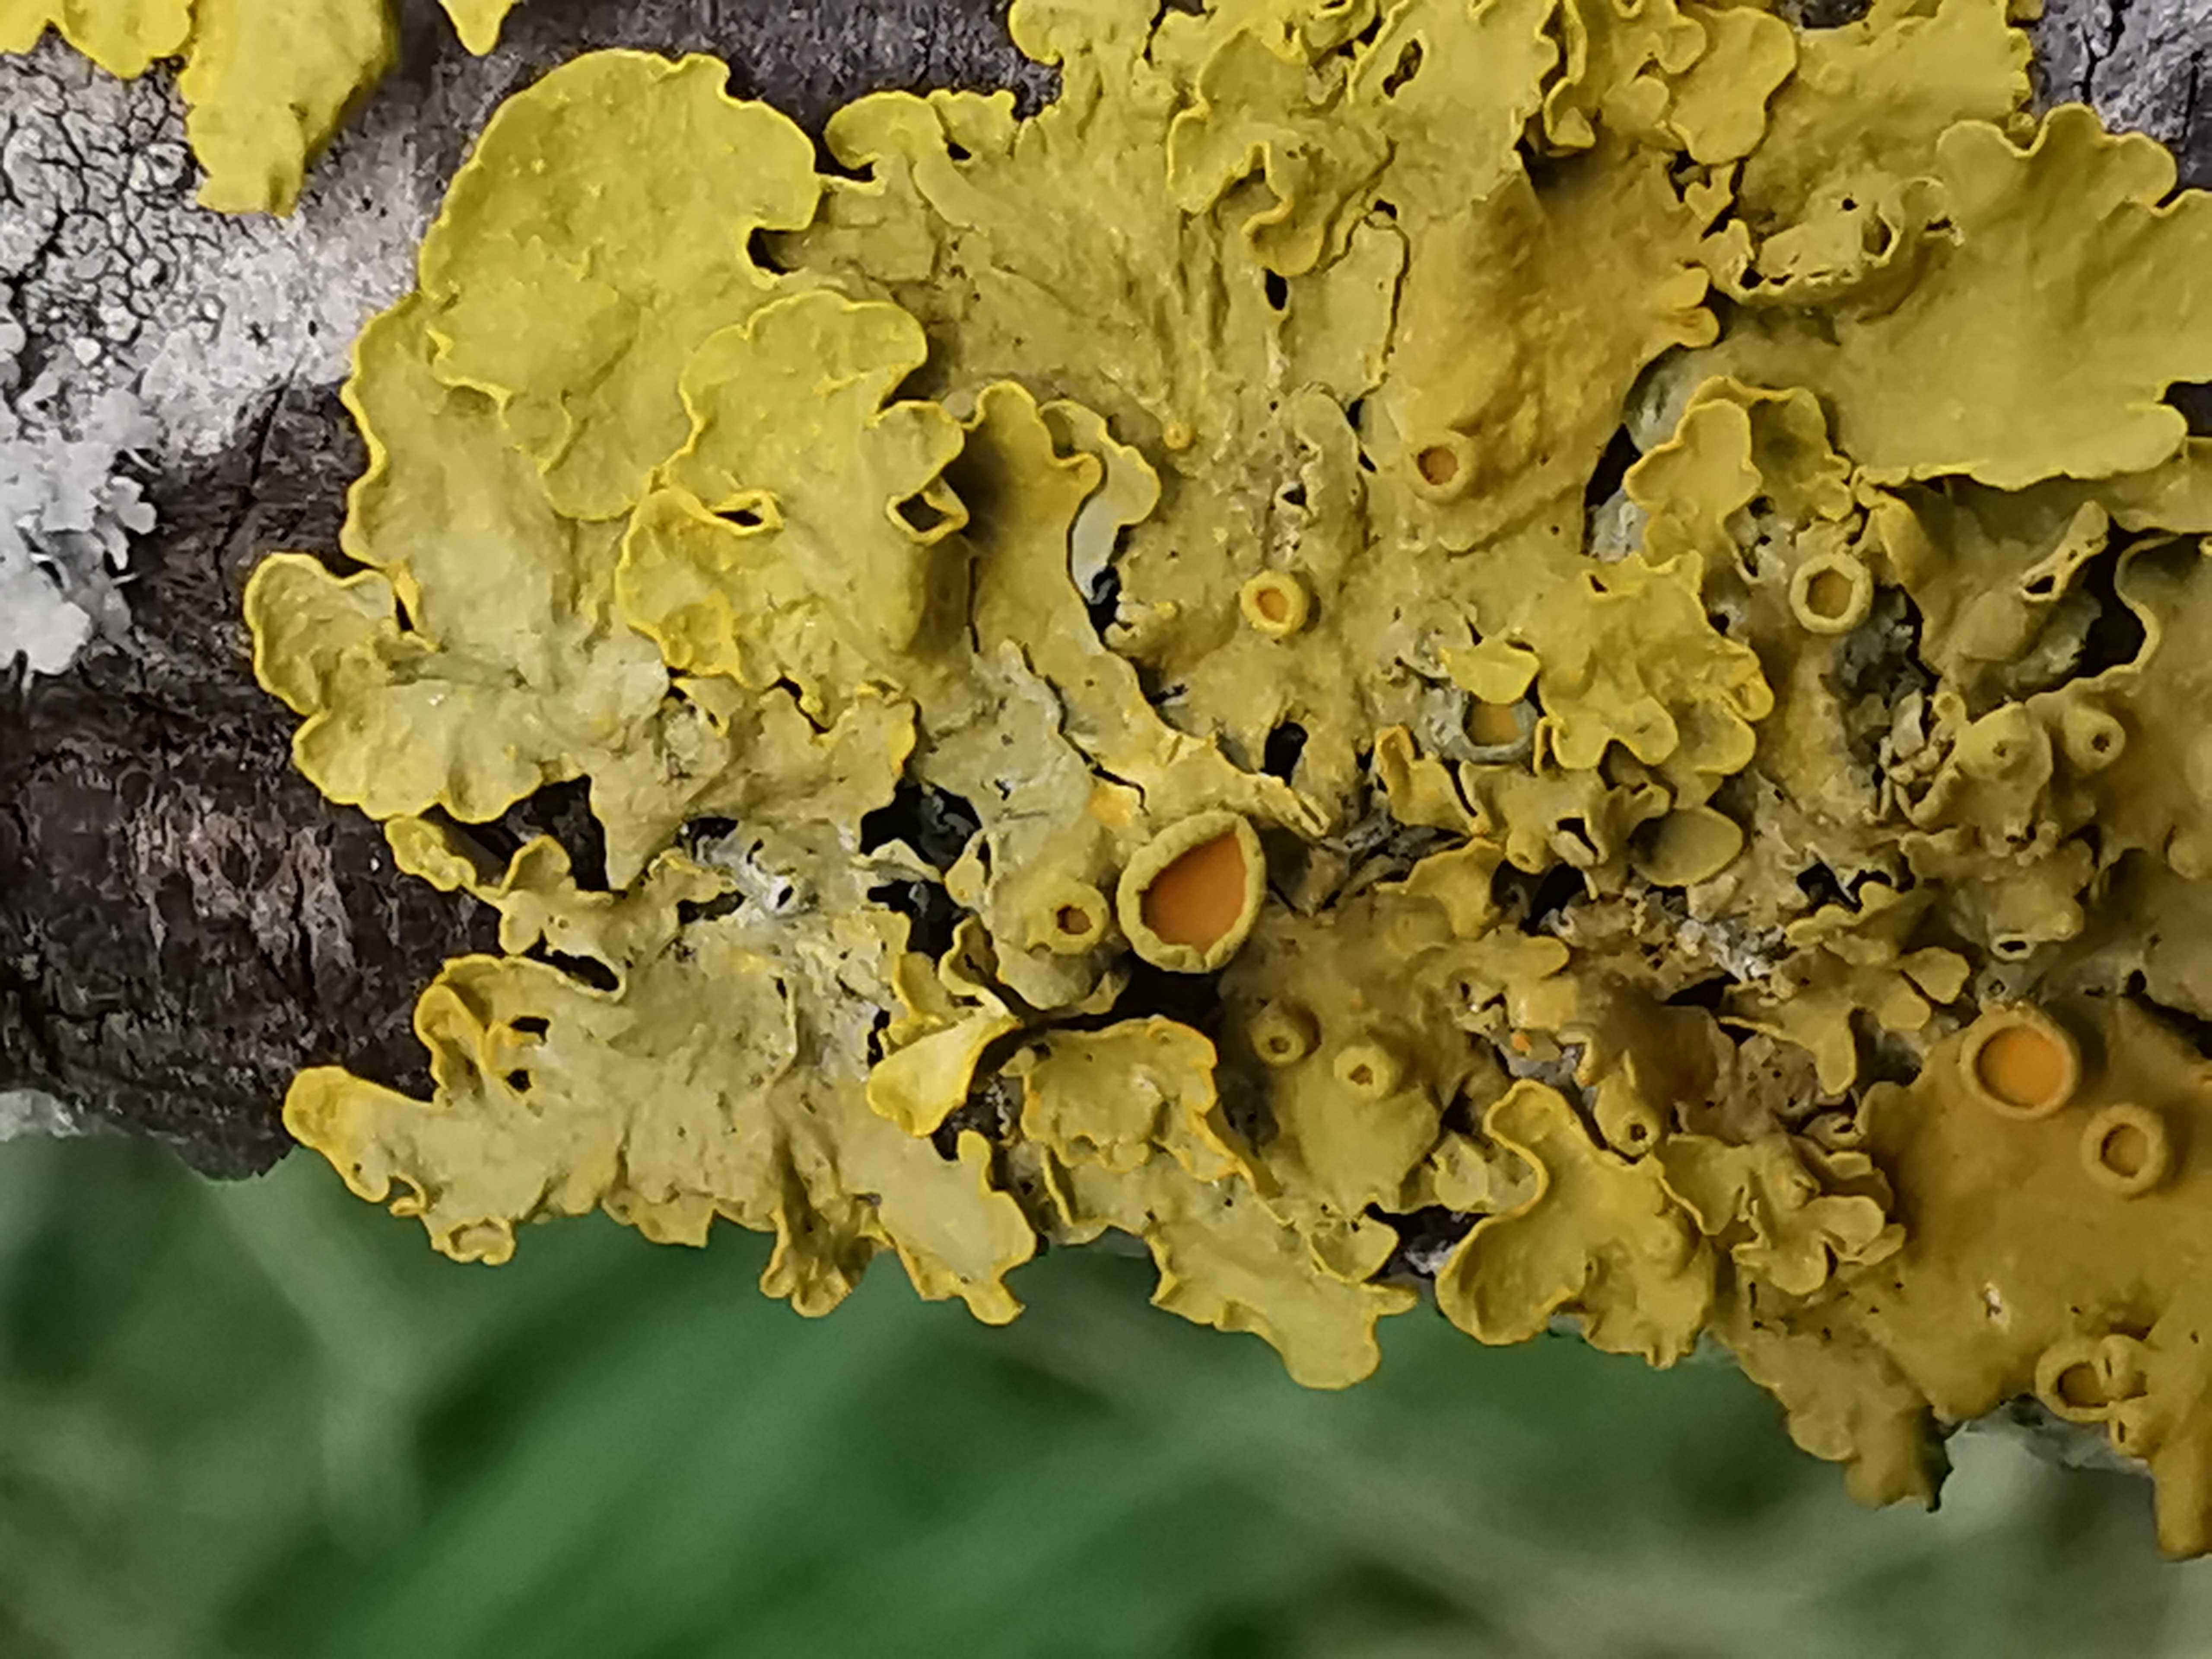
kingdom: Fungi
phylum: Ascomycota
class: Lecanoromycetes
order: Teloschistales
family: Teloschistaceae
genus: Xanthoria
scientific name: Xanthoria parietina
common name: almindelig væggelav
